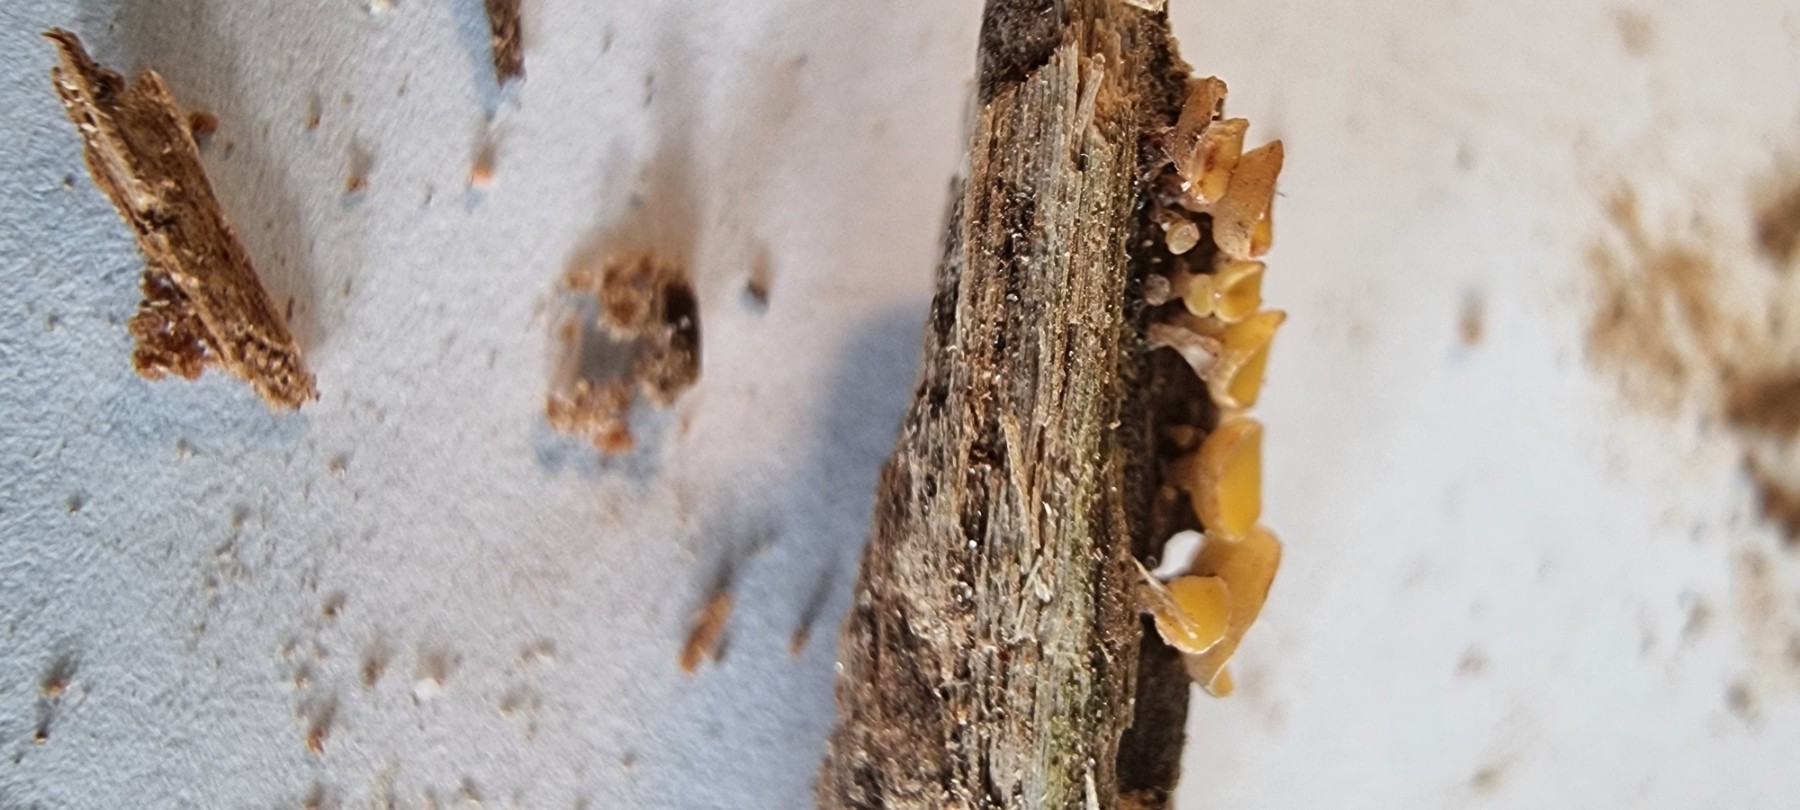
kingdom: Fungi
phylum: Ascomycota
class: Leotiomycetes
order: Helotiales
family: Helotiaceae
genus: Hymenoscyphus
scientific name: Hymenoscyphus
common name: stilkskive
